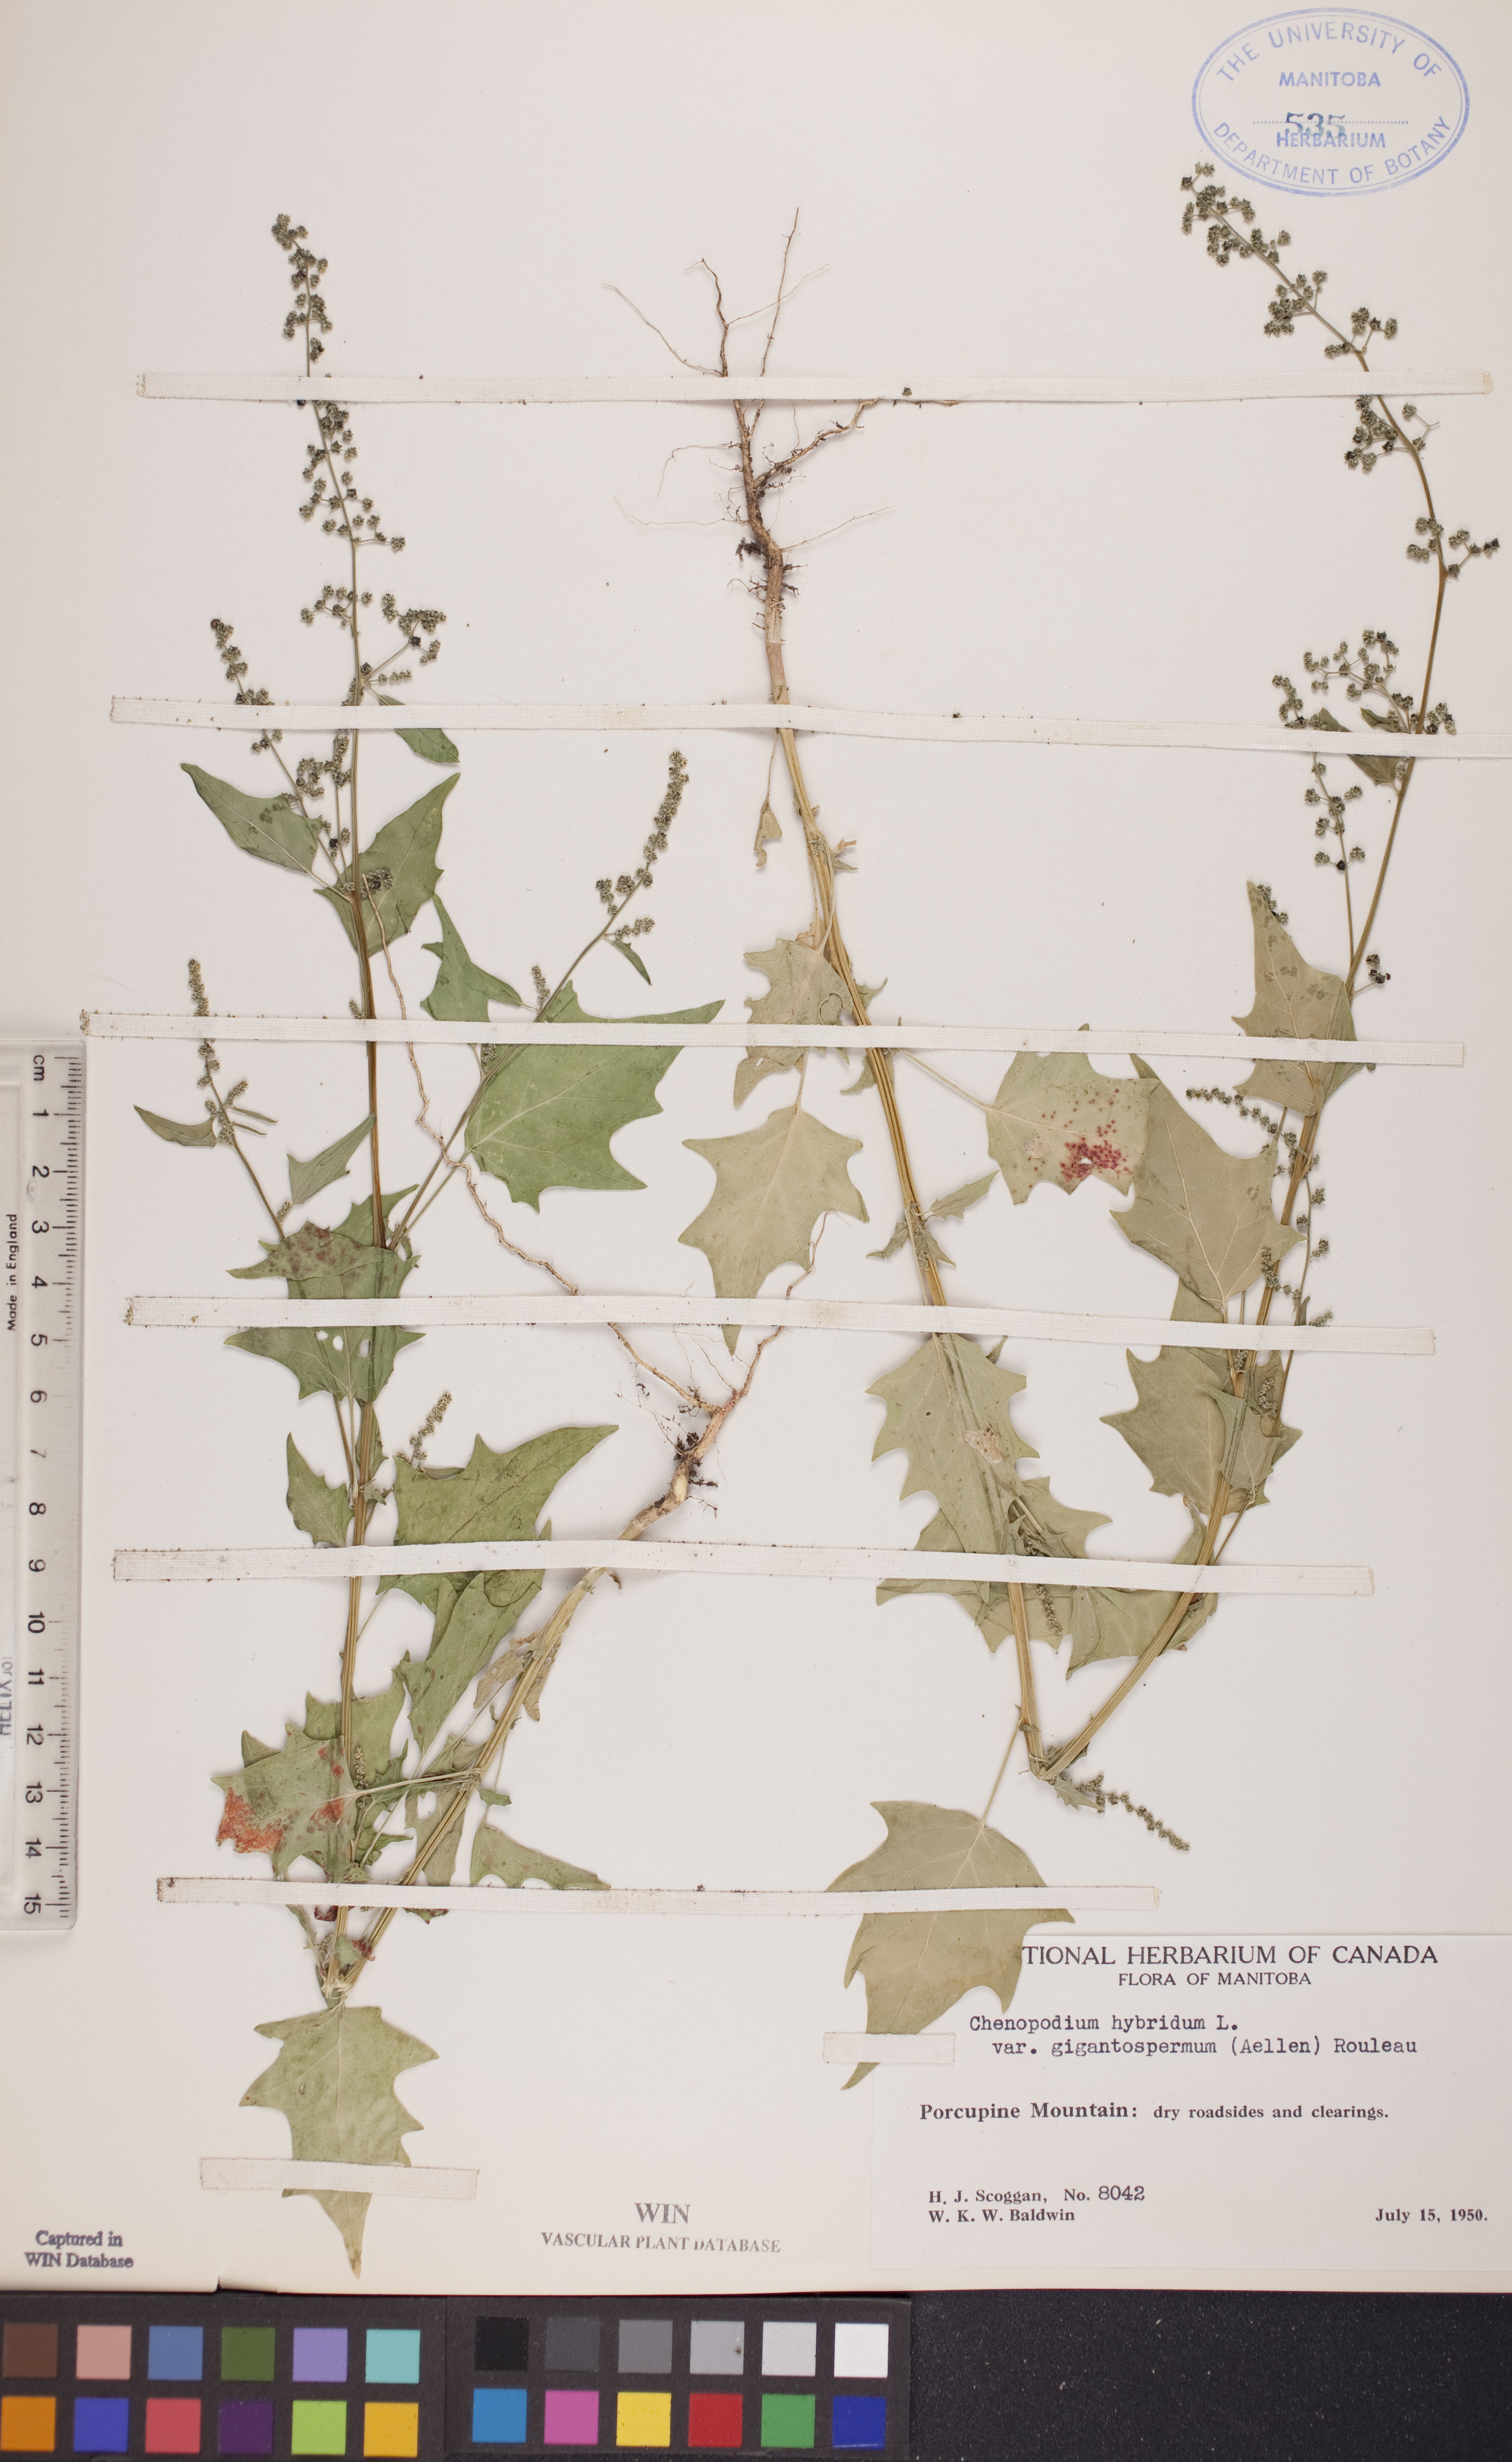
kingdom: Plantae
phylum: Tracheophyta
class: Magnoliopsida
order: Caryophyllales
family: Amaranthaceae
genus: Chenopodiastrum
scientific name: Chenopodiastrum simplex
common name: Large-seed goosefoot
